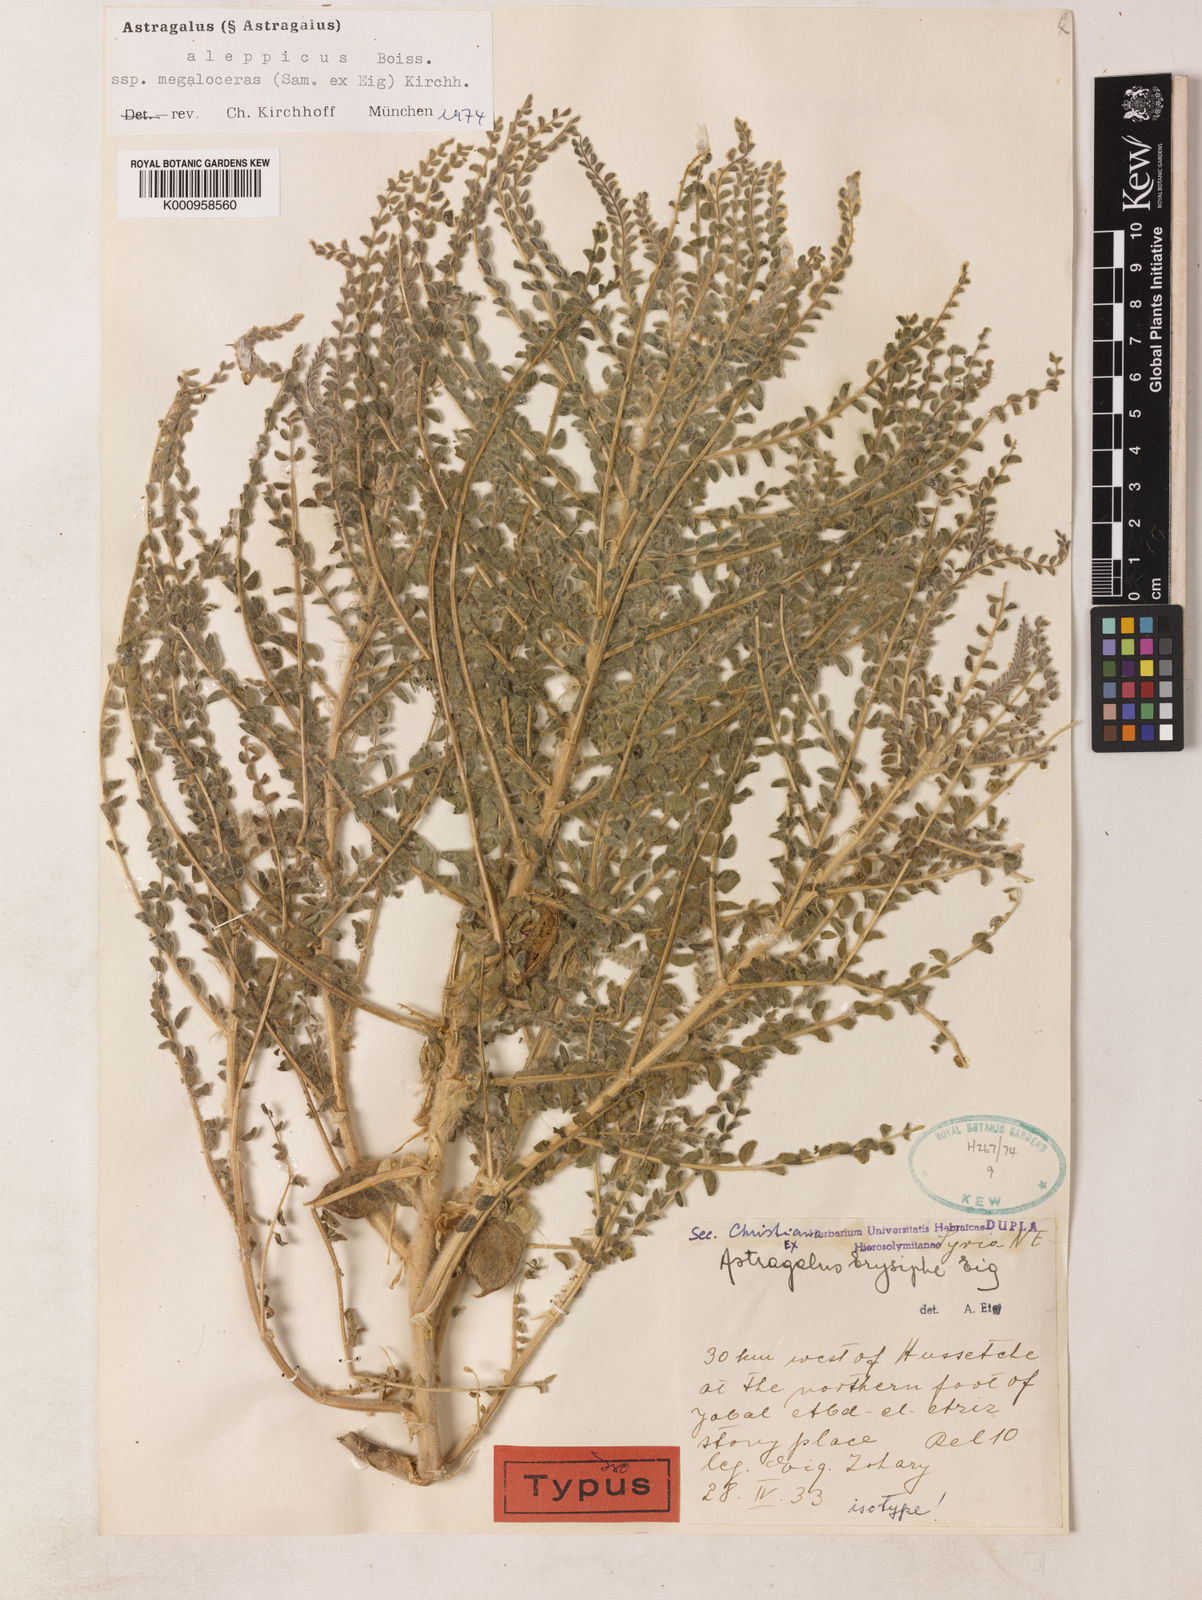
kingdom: Plantae
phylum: Tracheophyta
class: Magnoliopsida
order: Fabales
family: Fabaceae
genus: Astragalus
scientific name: Astragalus aleppicus
